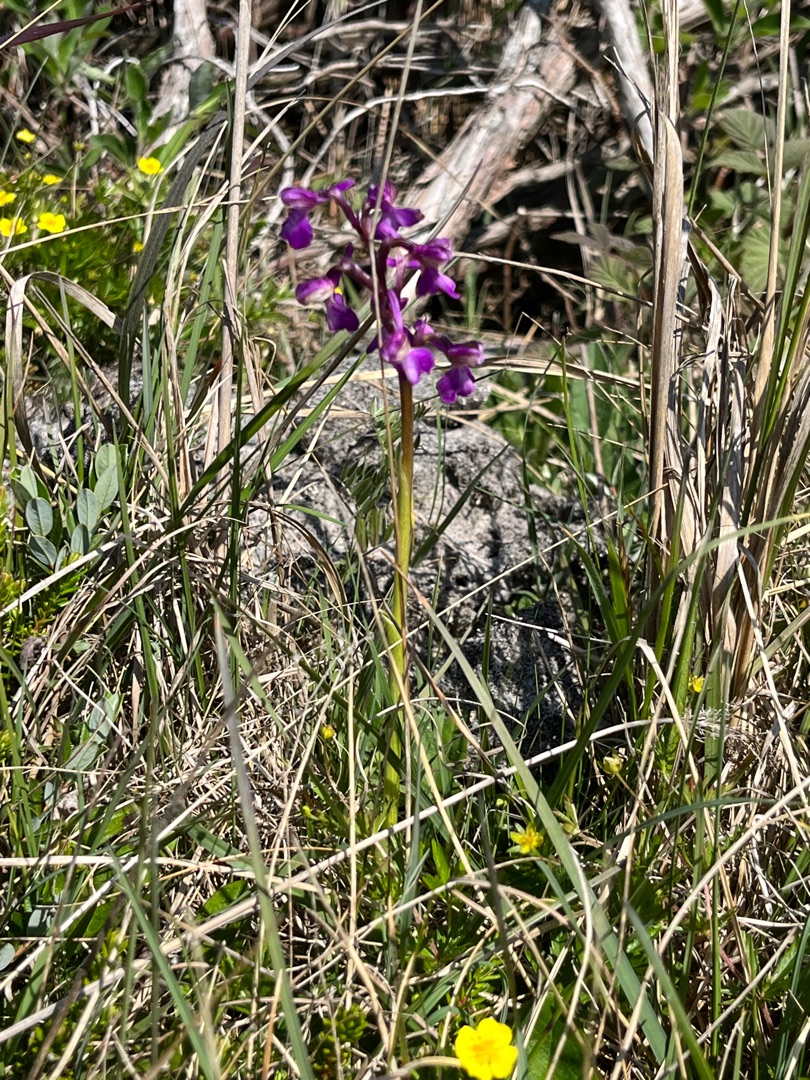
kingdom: Plantae
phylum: Tracheophyta
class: Liliopsida
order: Asparagales
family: Orchidaceae
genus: Anacamptis
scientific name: Anacamptis morio
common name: Salepgøgeurt
